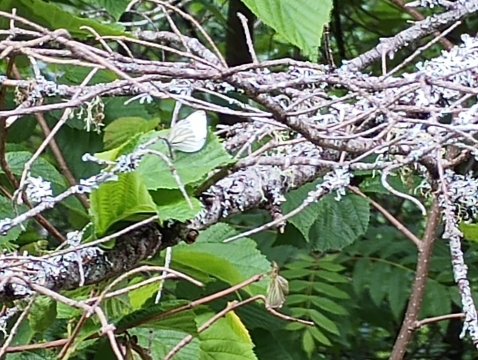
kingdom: Animalia
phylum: Arthropoda
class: Insecta
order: Lepidoptera
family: Pieridae
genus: Pieris
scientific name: Pieris oleracea
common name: Mustard White
